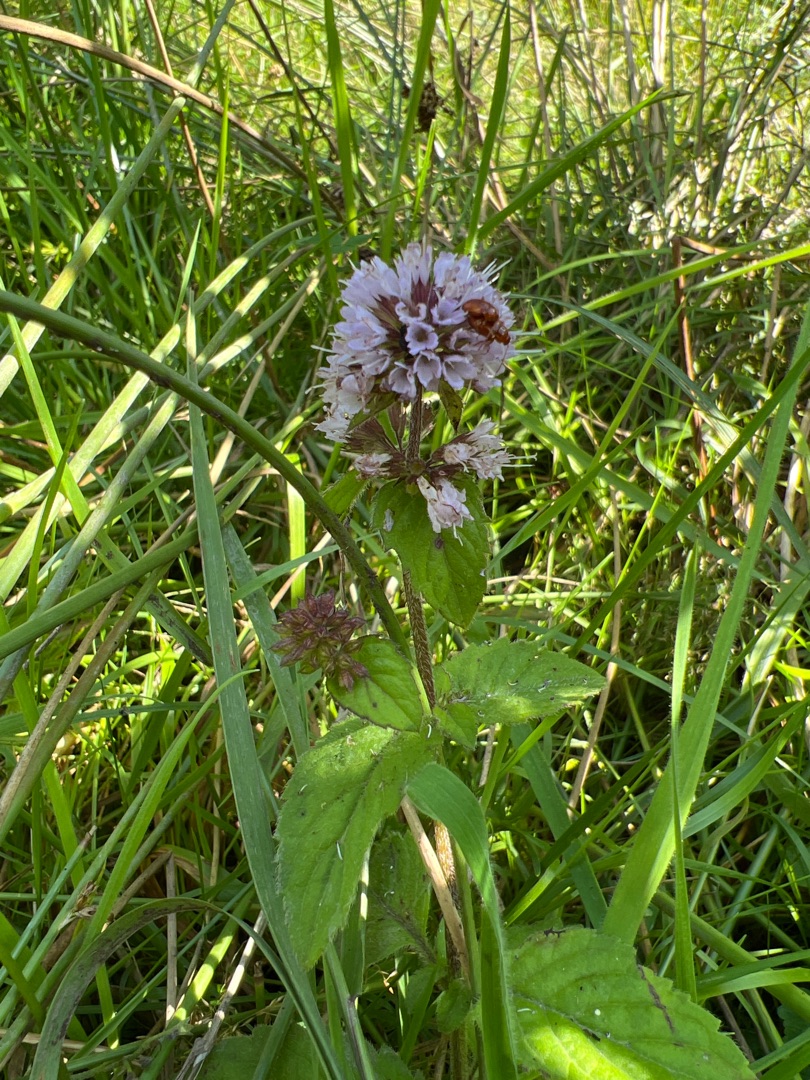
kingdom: Plantae
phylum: Tracheophyta
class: Magnoliopsida
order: Lamiales
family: Lamiaceae
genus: Mentha
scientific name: Mentha aquatica
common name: Vand-mynte
